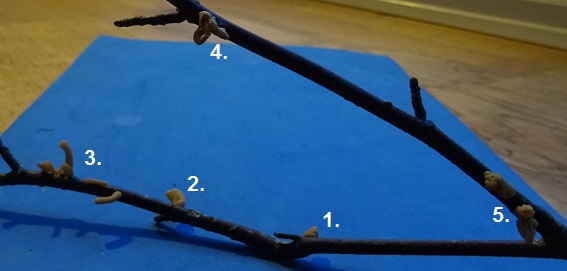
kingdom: Fungi
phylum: Basidiomycota
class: Agaricomycetes
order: Agaricales
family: Typhulaceae
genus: Typhula
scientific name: Typhula contorta
